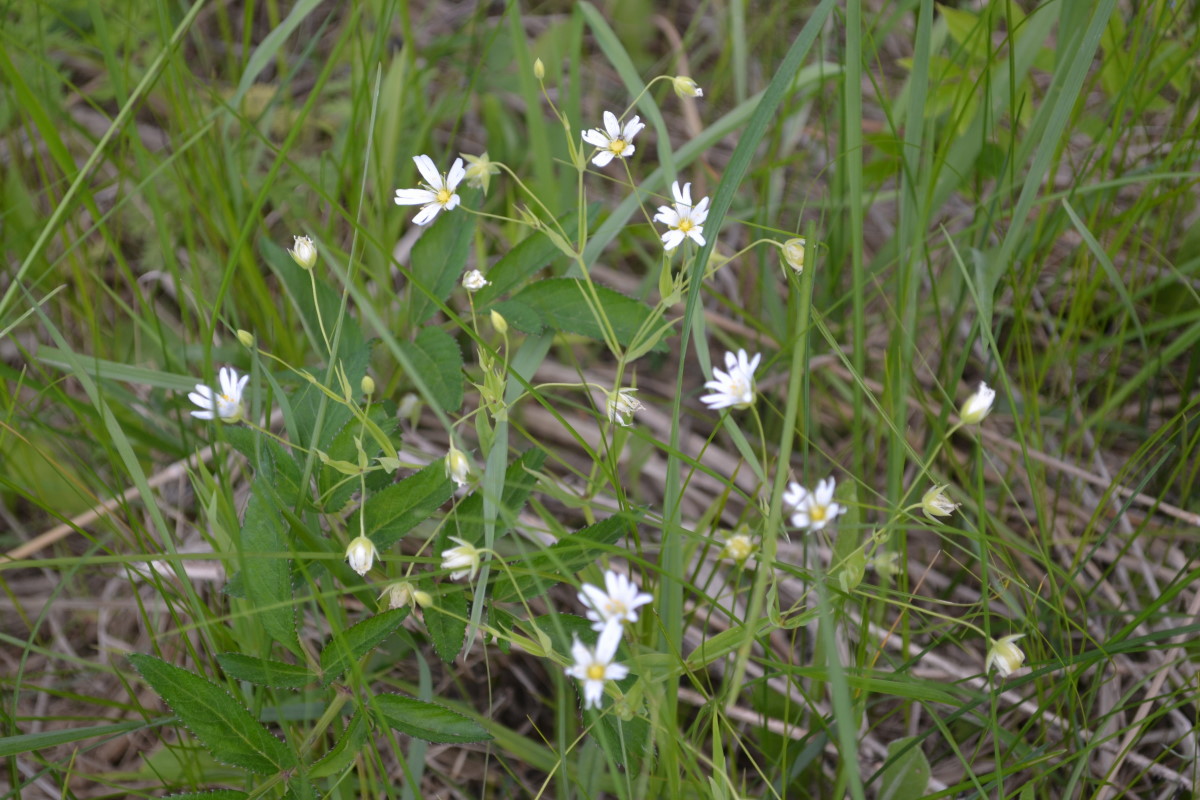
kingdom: Plantae
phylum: Tracheophyta
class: Magnoliopsida
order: Caryophyllales
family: Caryophyllaceae
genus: Rabelera
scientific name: Rabelera holostea
